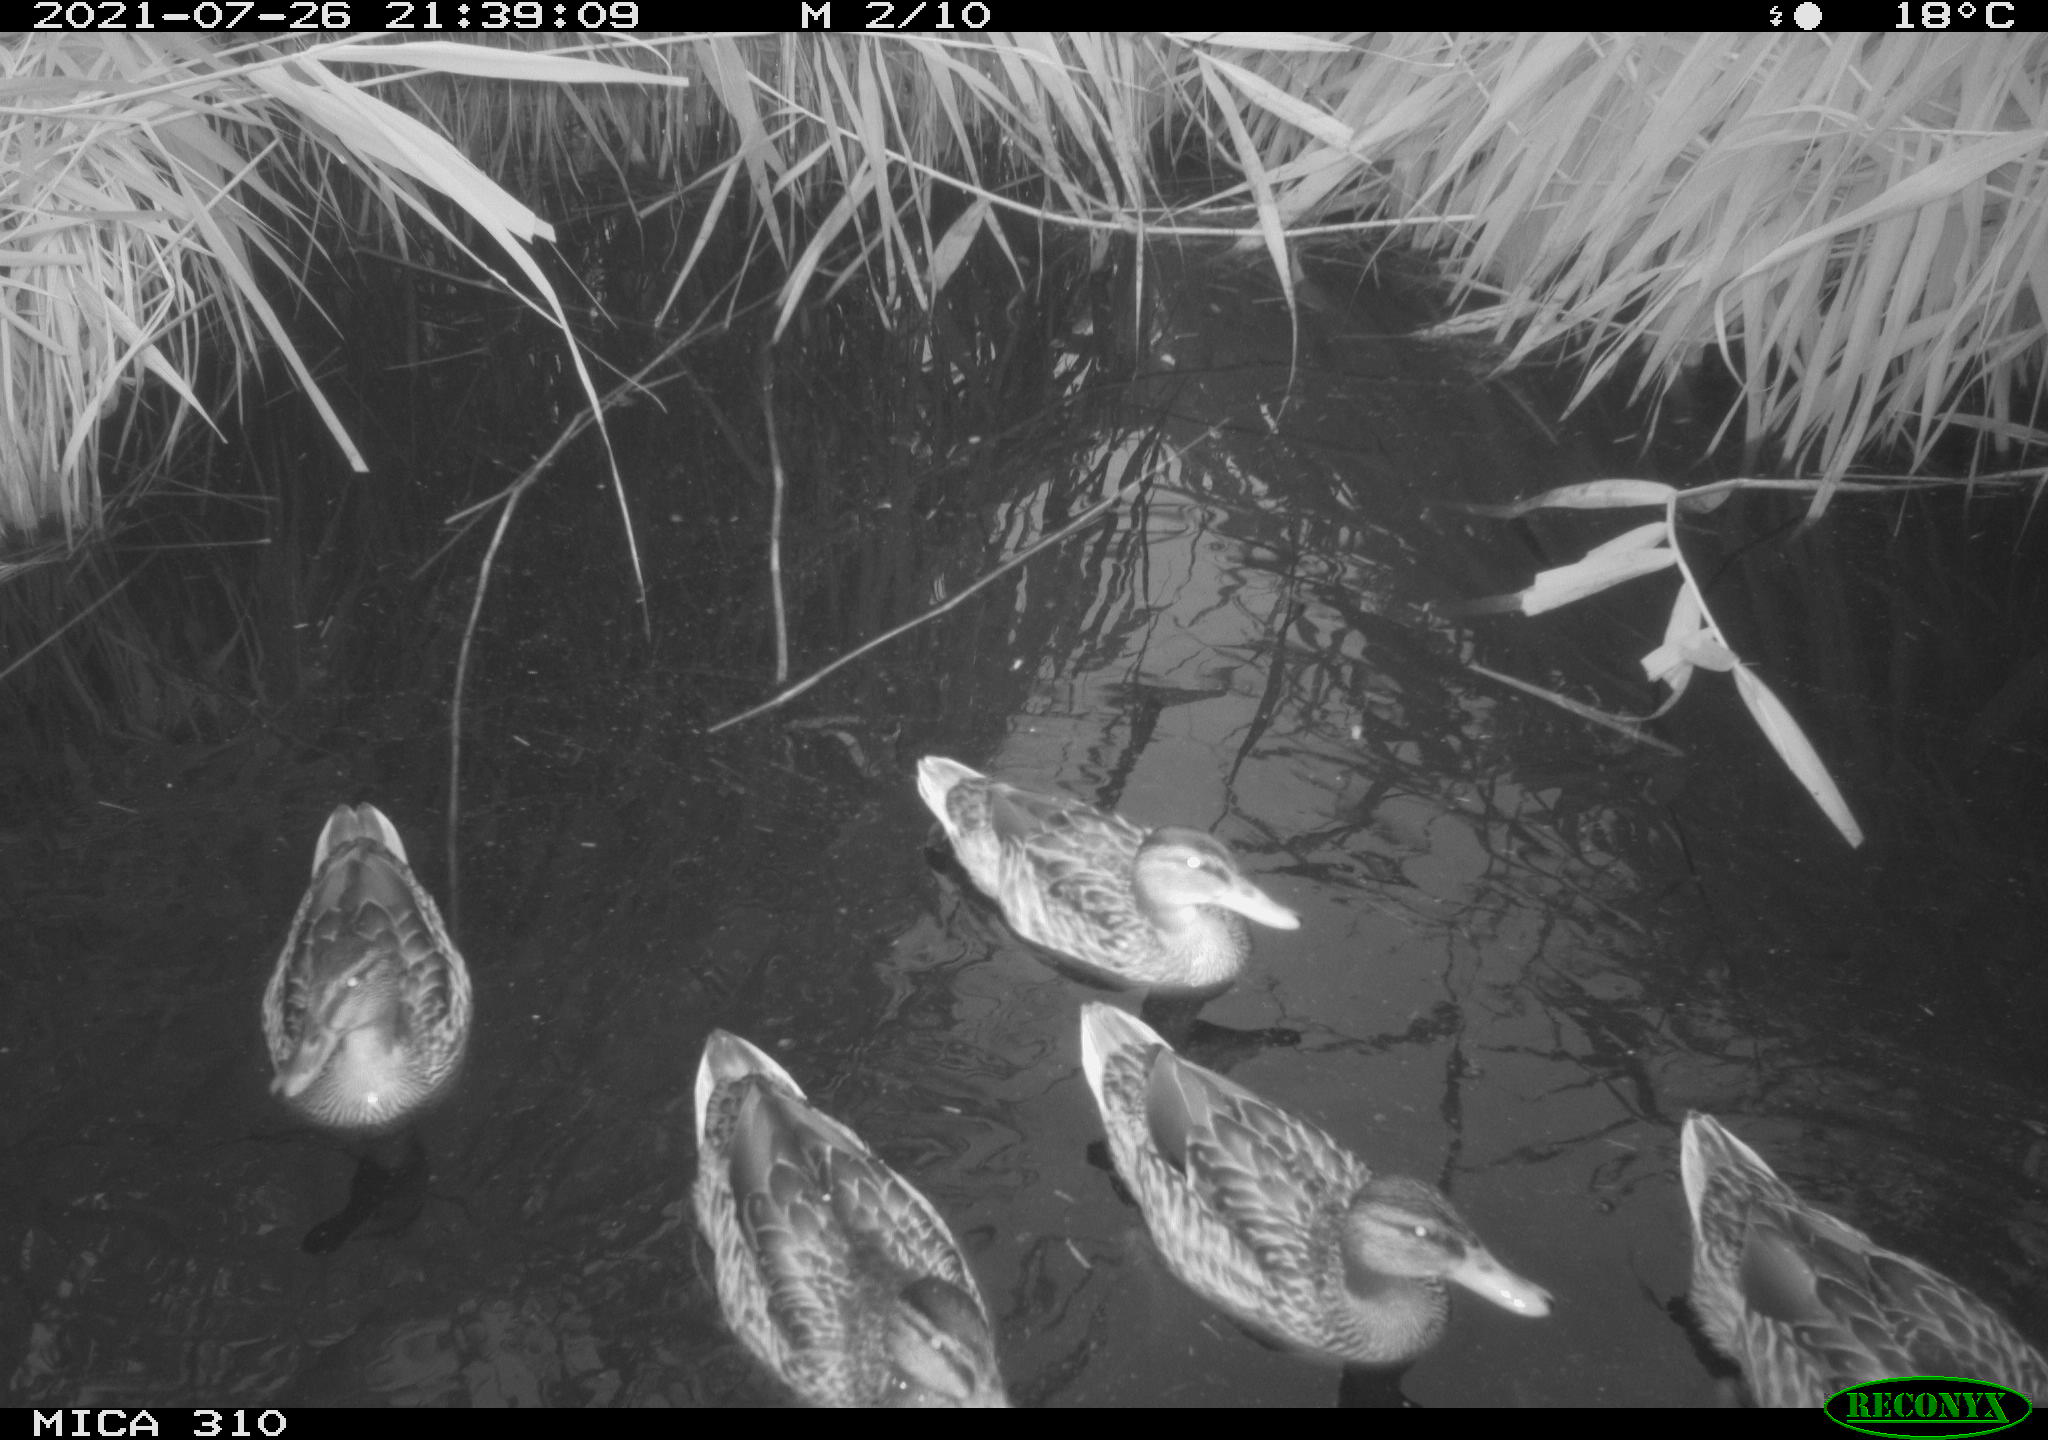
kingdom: Animalia
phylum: Chordata
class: Aves
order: Anseriformes
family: Anatidae
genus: Mareca
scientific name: Mareca strepera
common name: Gadwall
